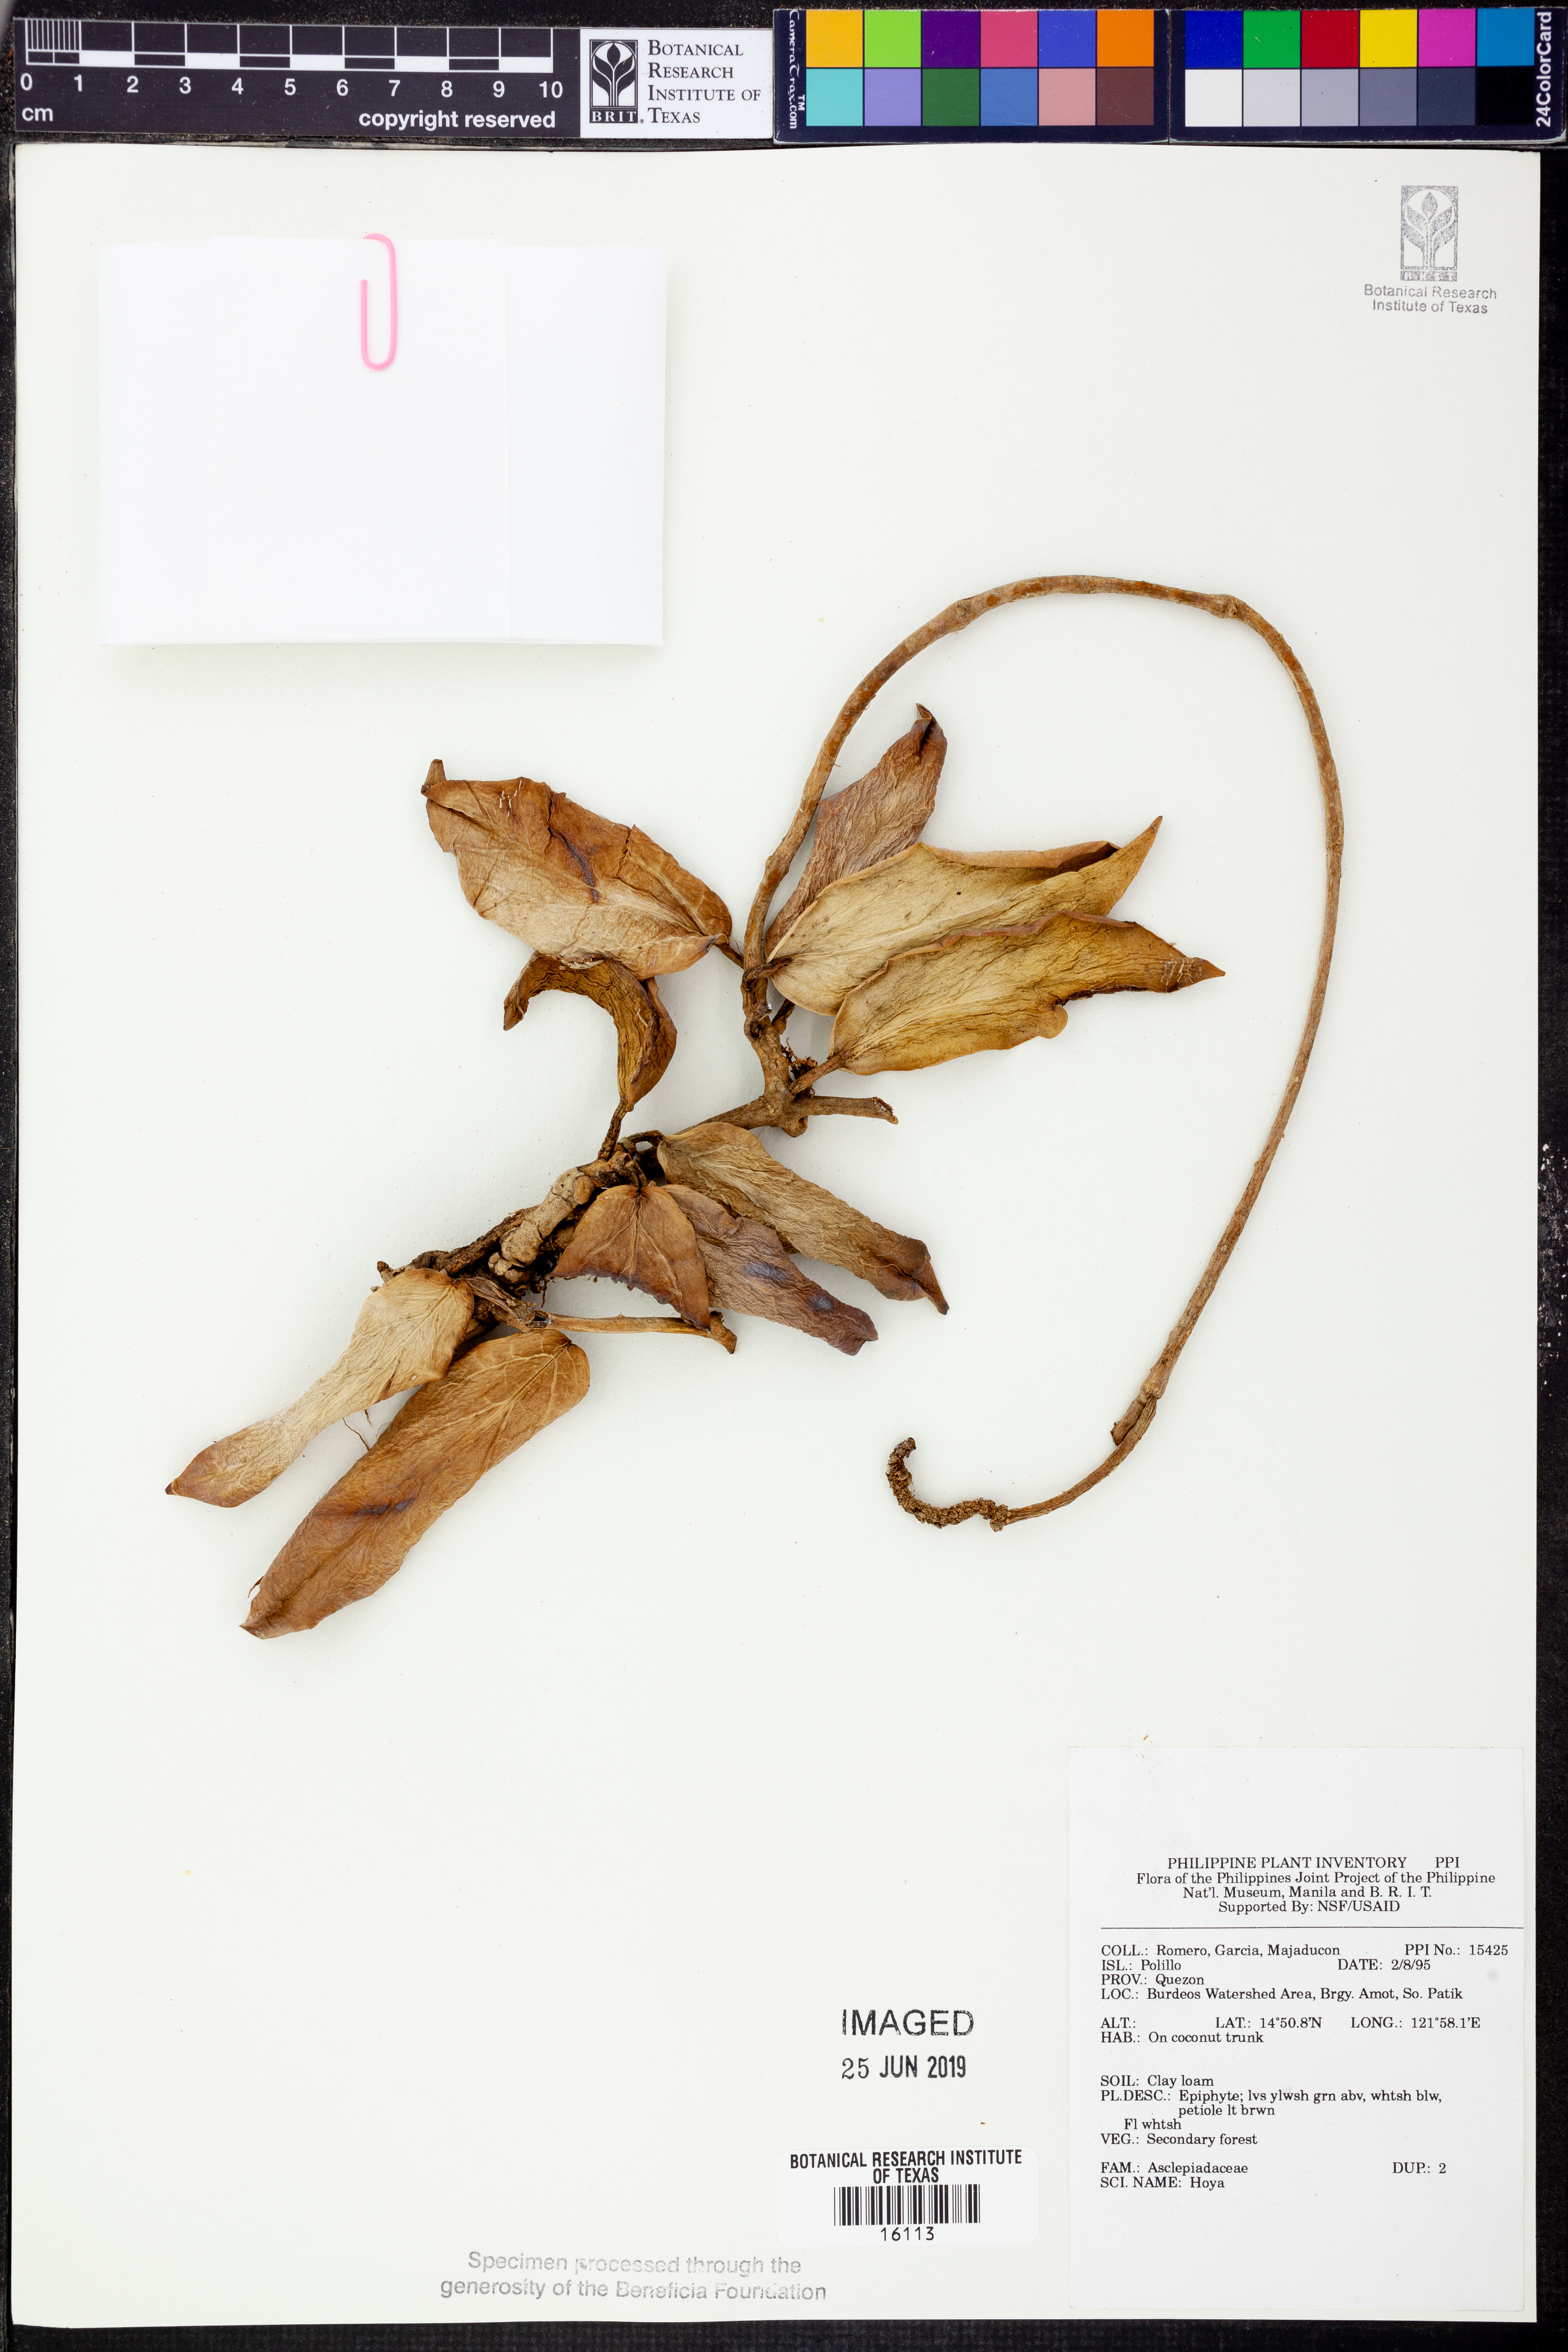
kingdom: Plantae
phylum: Tracheophyta
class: Magnoliopsida
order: Gentianales
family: Apocynaceae
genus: Hoya
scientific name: Hoya
